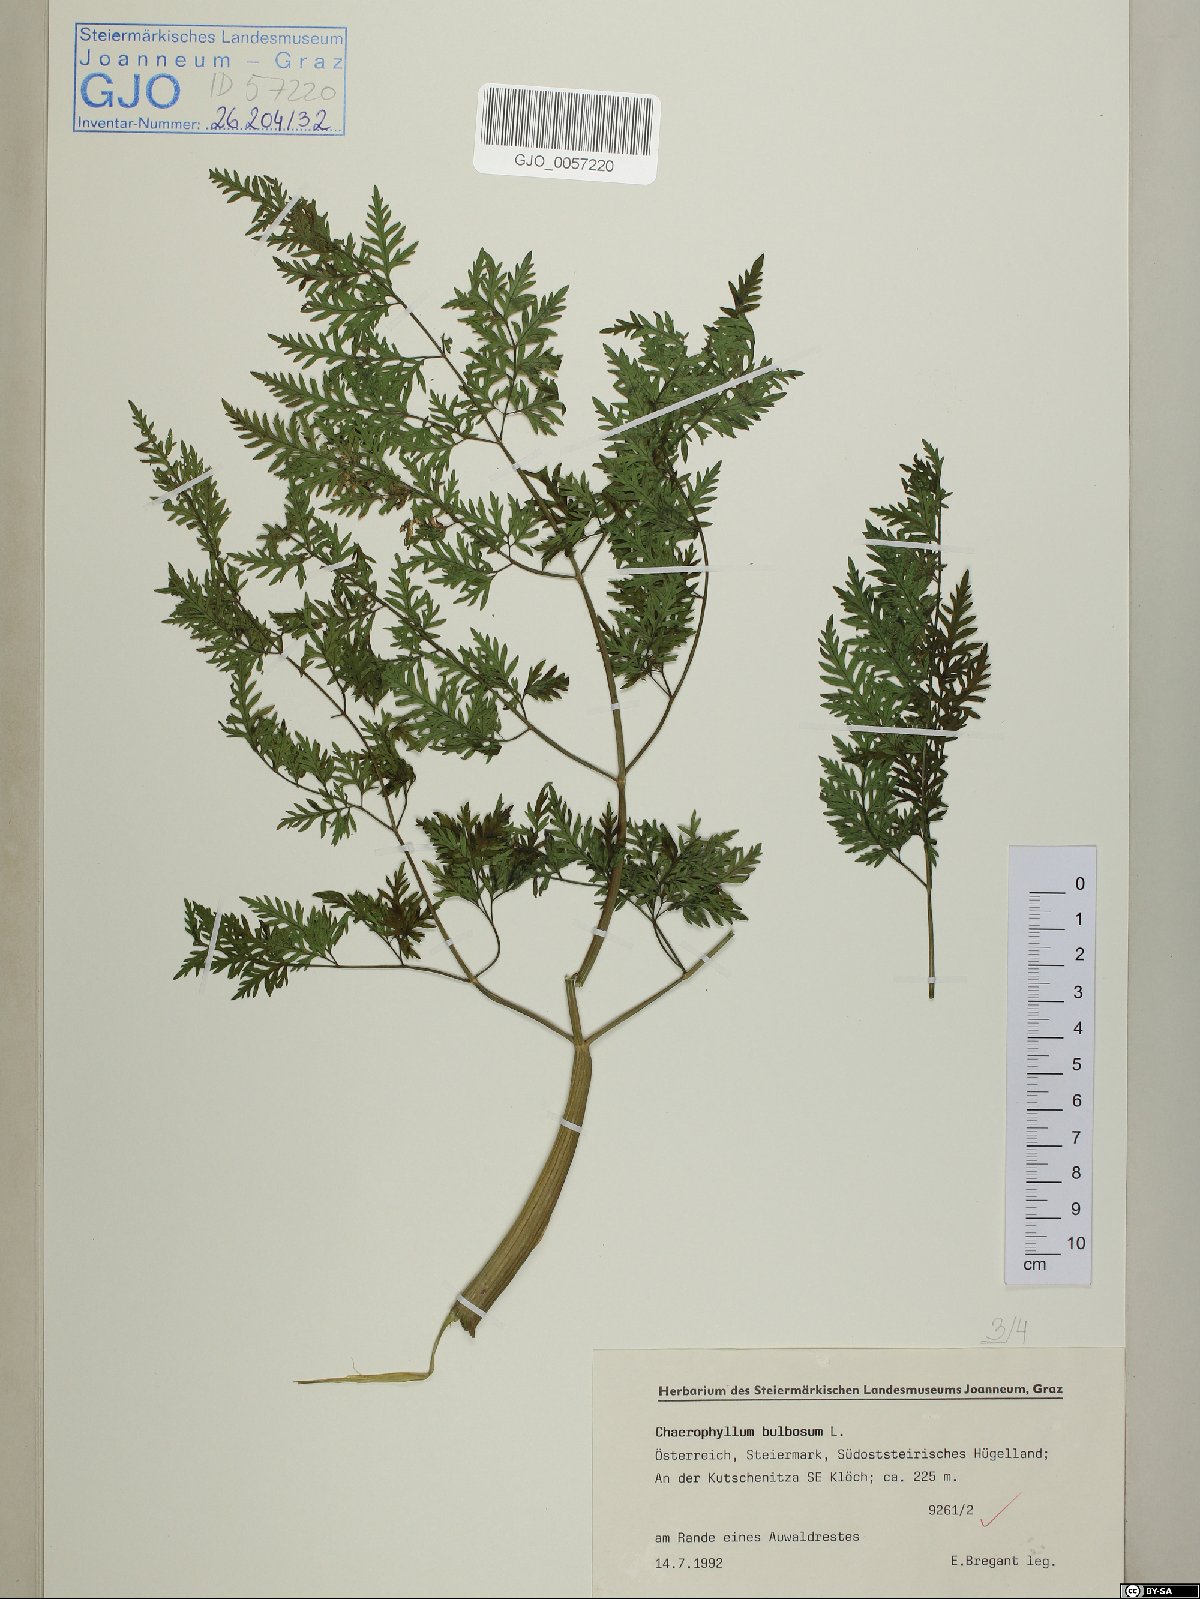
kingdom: Plantae
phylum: Tracheophyta
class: Magnoliopsida
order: Apiales
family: Apiaceae
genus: Chaerophyllum
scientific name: Chaerophyllum bulbosum
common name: Bulbous chervil
